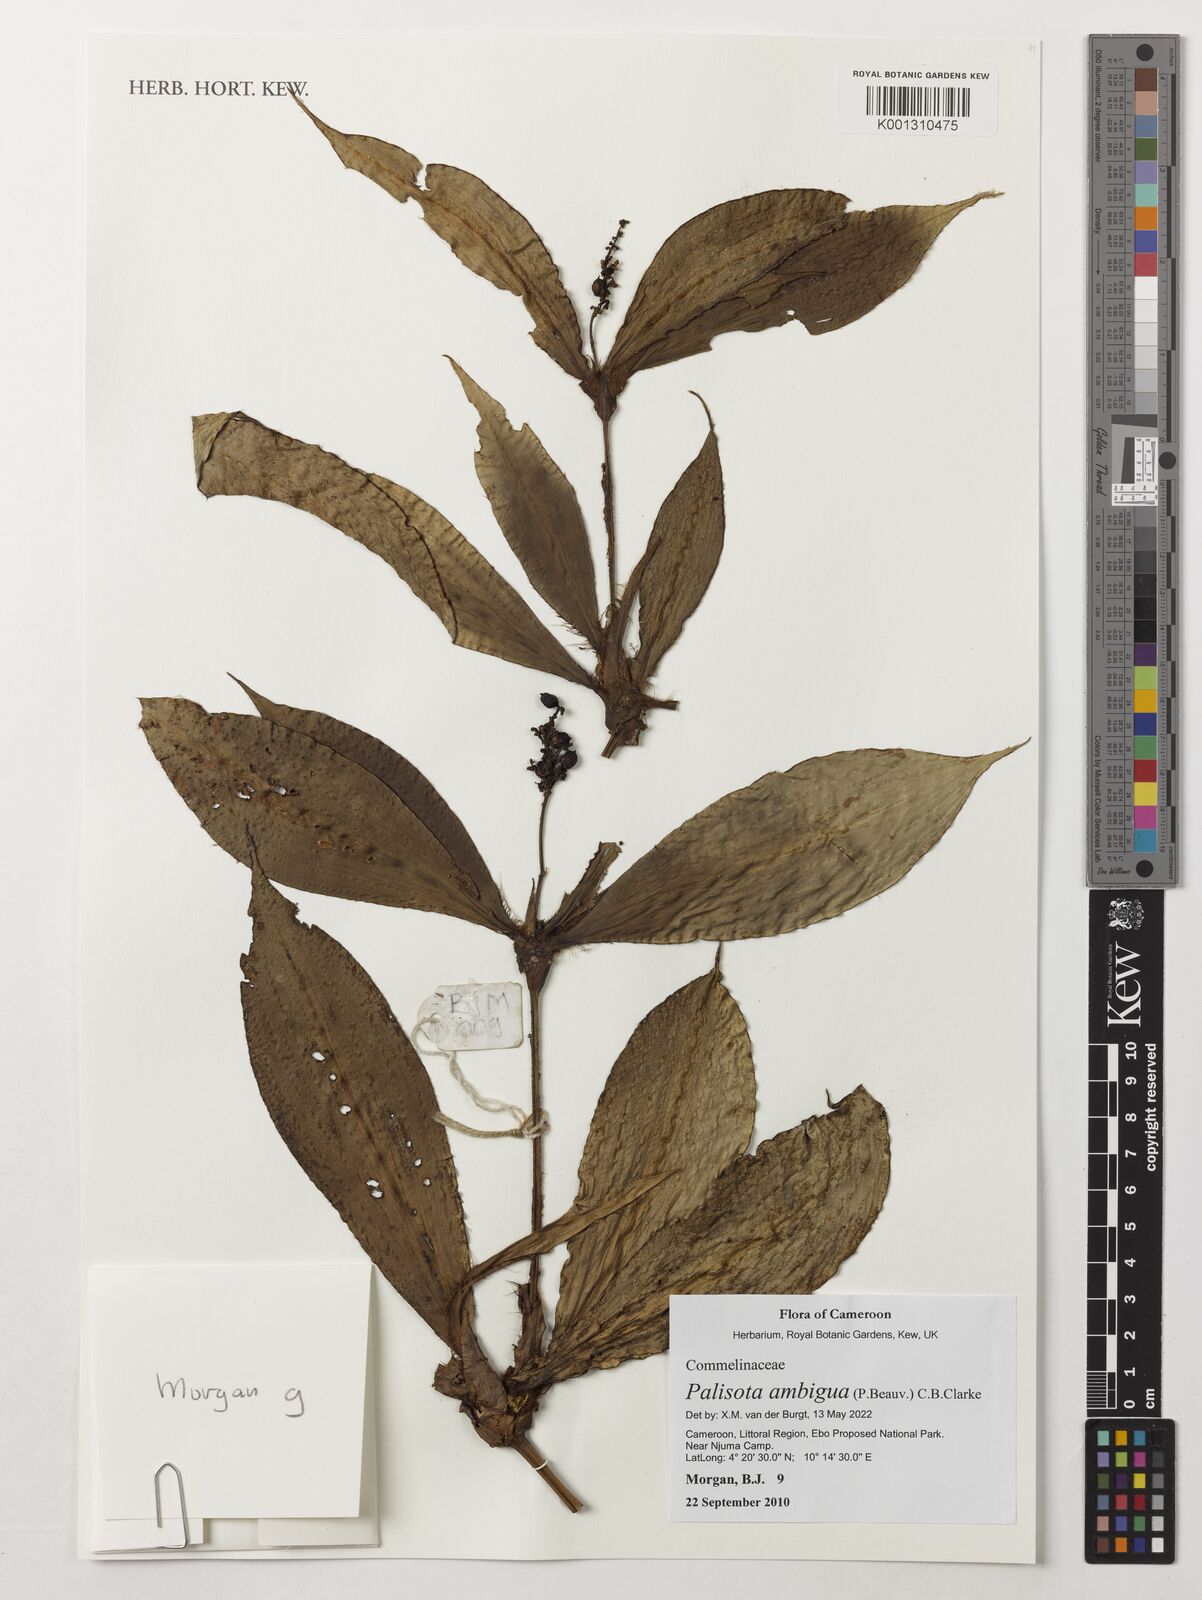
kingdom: Plantae
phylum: Tracheophyta
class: Liliopsida
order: Commelinales
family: Commelinaceae
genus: Palisota
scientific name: Palisota ambigua
